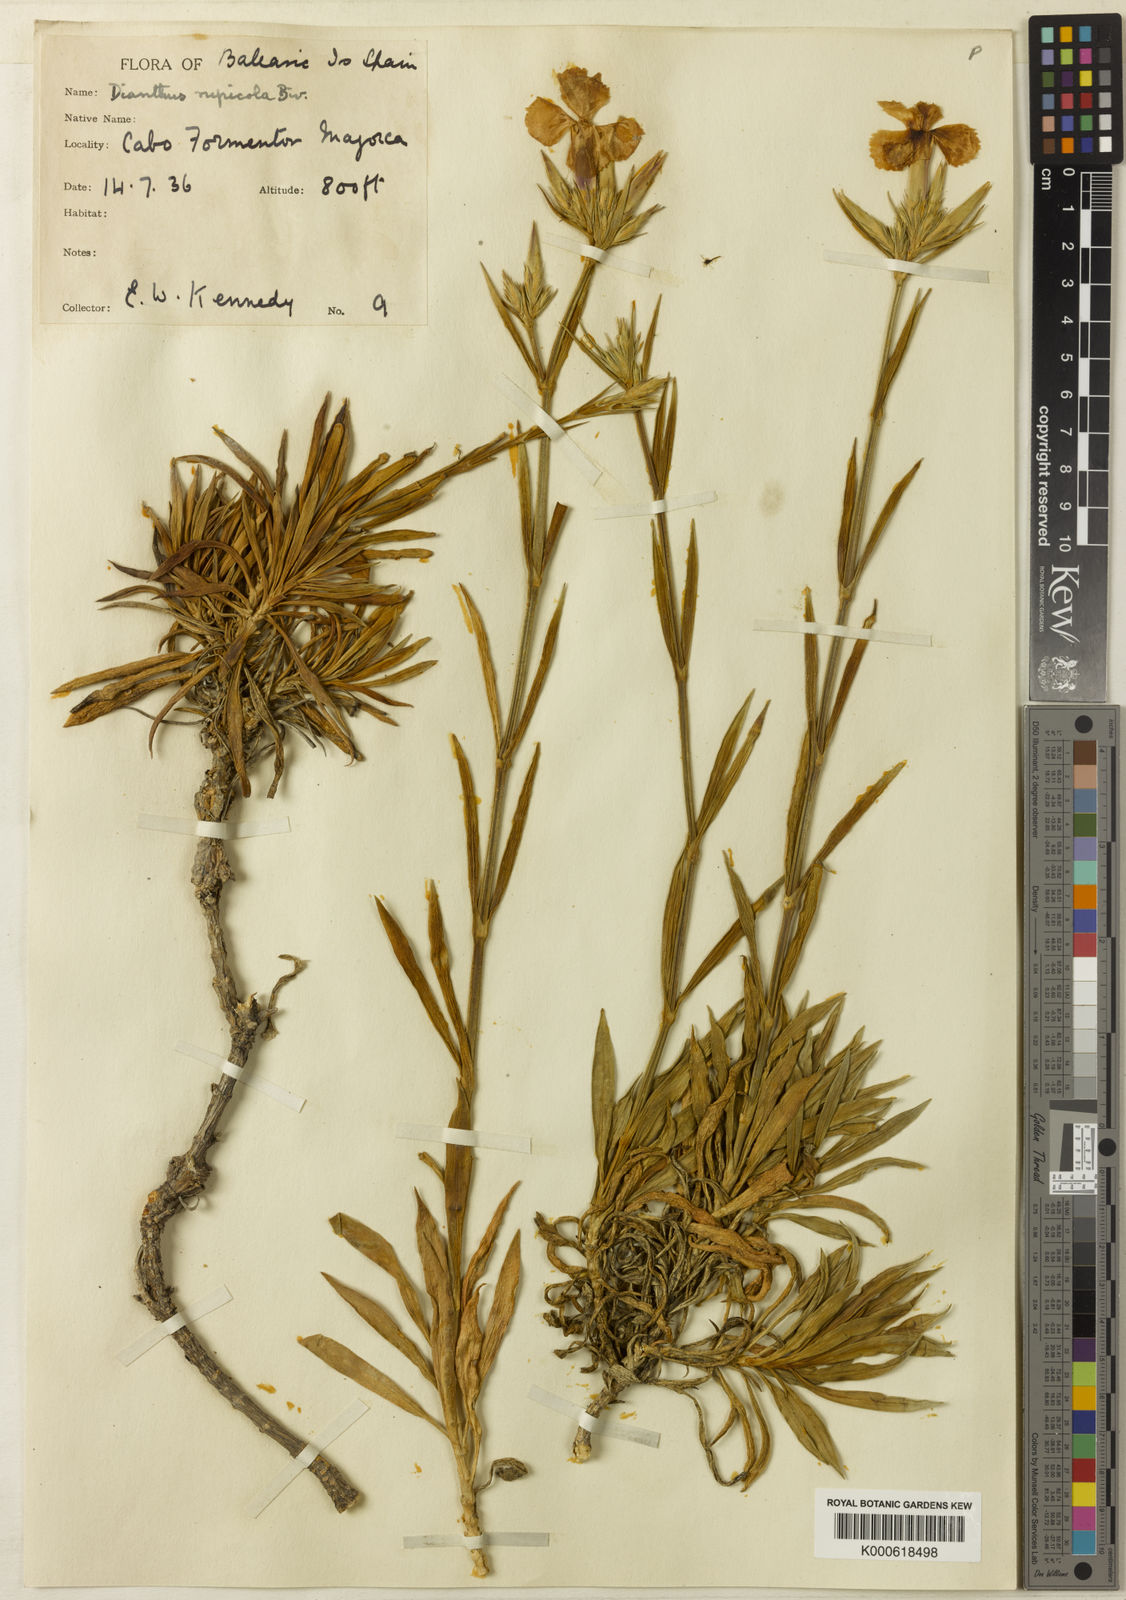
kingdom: Plantae
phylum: Tracheophyta
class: Magnoliopsida
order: Caryophyllales
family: Caryophyllaceae
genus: Dianthus
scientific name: Dianthus rupicola
